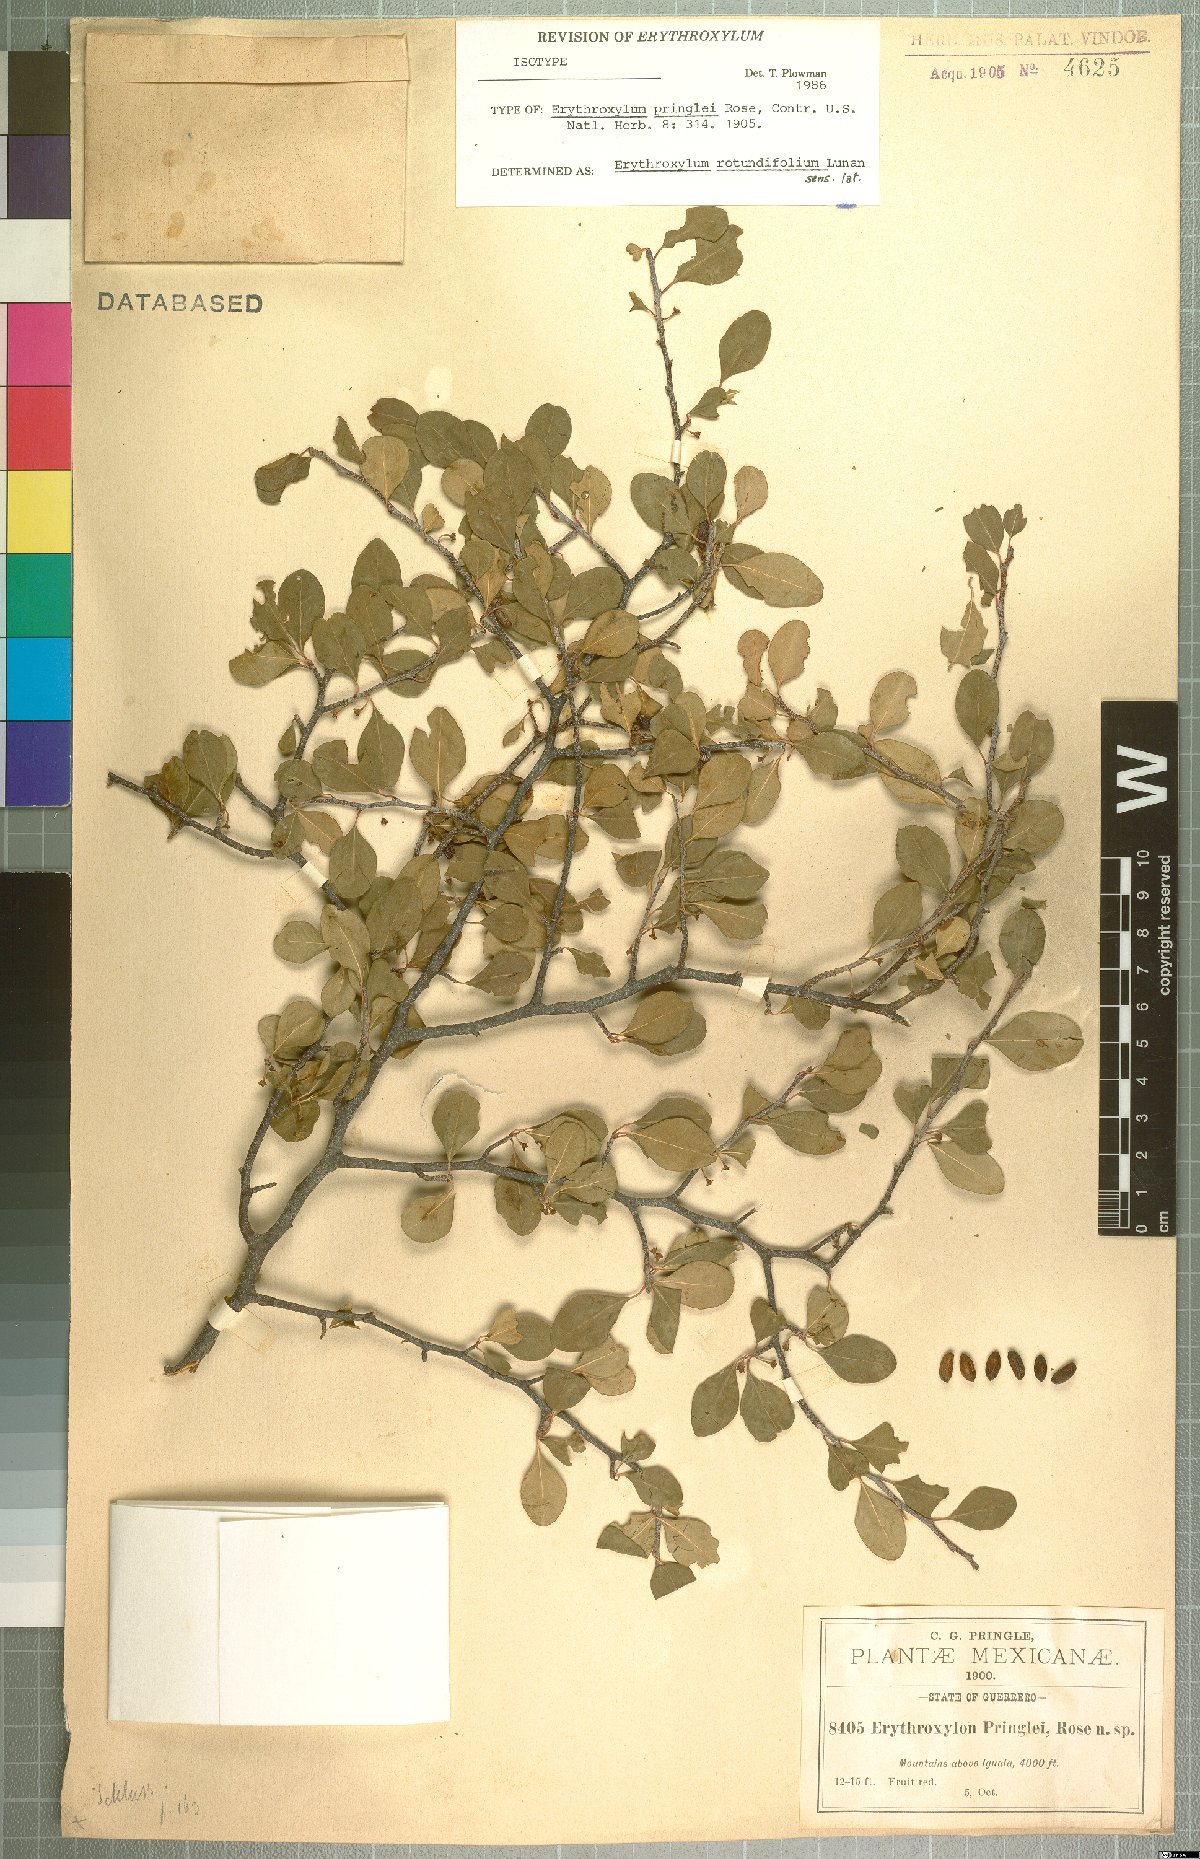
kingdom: Plantae
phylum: Tracheophyta
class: Magnoliopsida
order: Malpighiales
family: Erythroxylaceae
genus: Erythroxylum
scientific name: Erythroxylum rotundifolium
